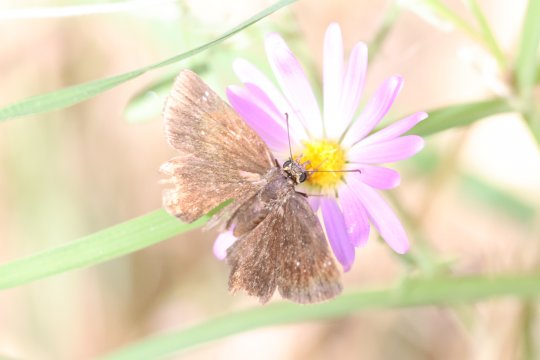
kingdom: Animalia
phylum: Arthropoda
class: Insecta
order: Lepidoptera
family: Hesperiidae
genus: Pholisora
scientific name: Pholisora catullus
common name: Common Sootywing
